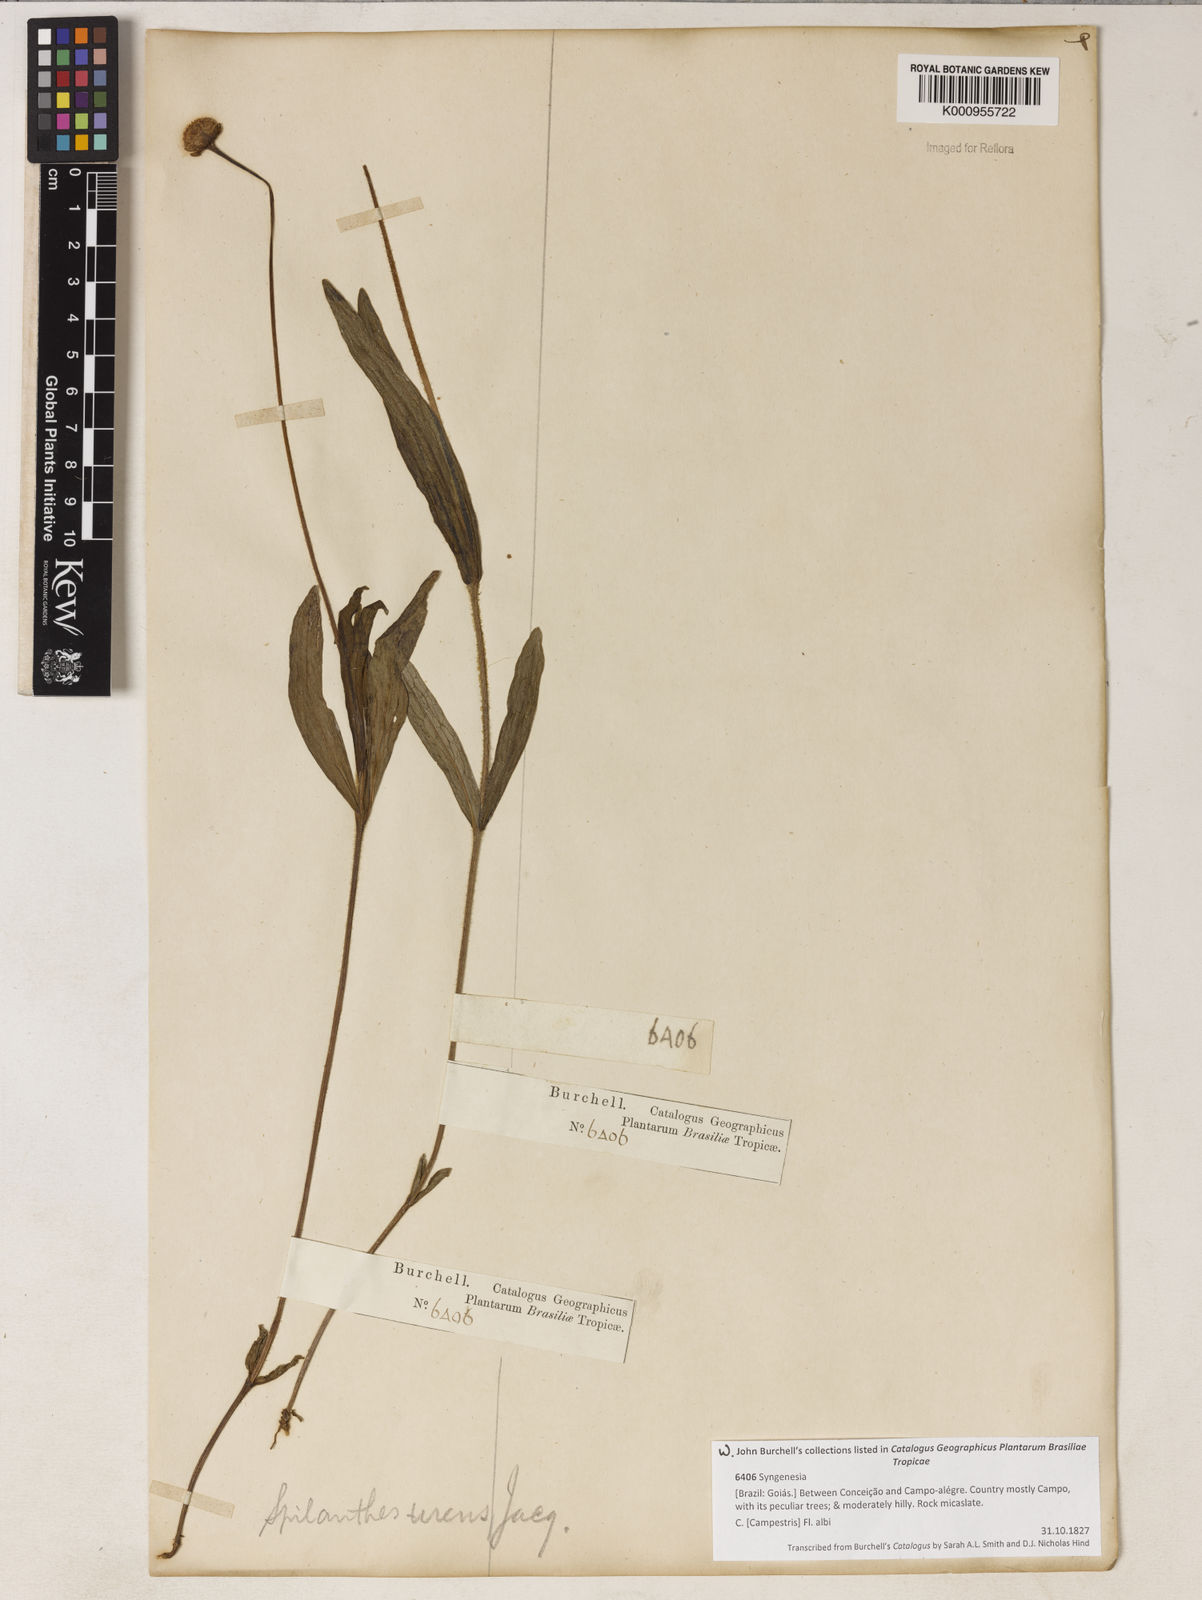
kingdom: Plantae
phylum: Tracheophyta
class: Magnoliopsida
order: Asterales
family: Asteraceae
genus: Spilanthes
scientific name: Spilanthes urens
